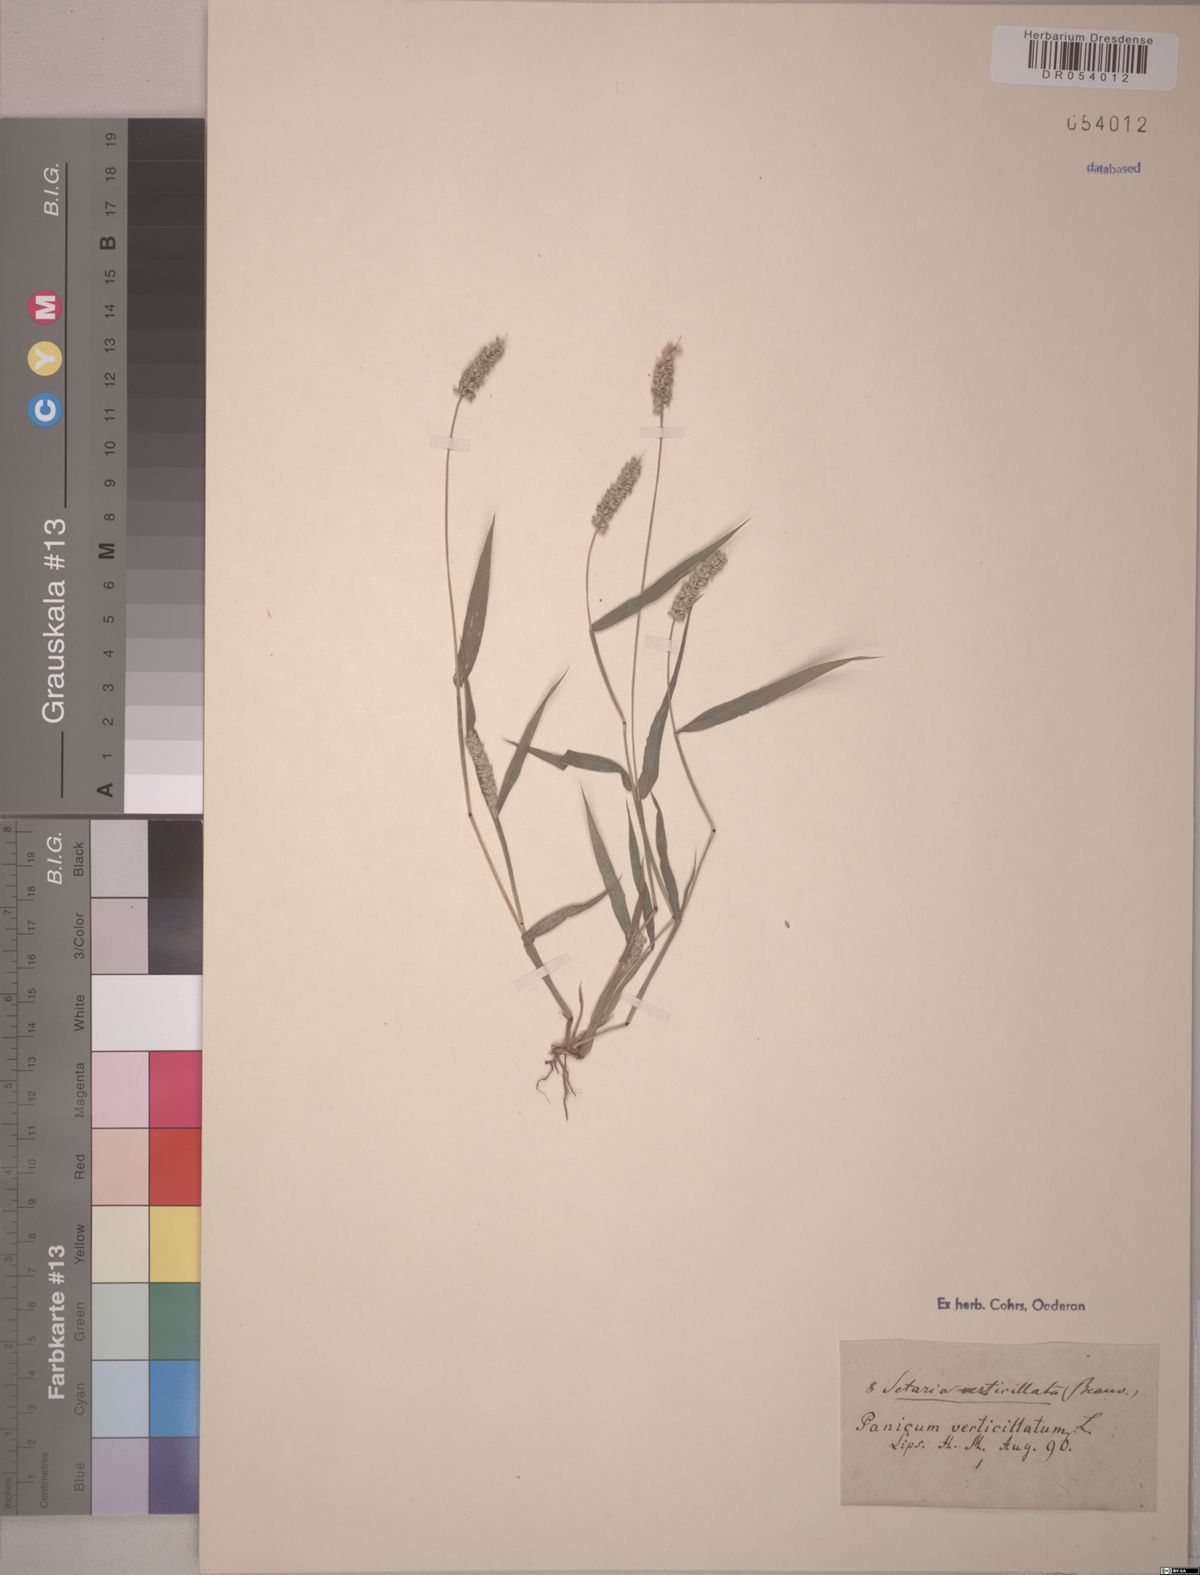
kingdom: Plantae
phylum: Tracheophyta
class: Liliopsida
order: Poales
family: Poaceae
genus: Setaria
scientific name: Setaria verticillata
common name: Hooked bristlegrass
